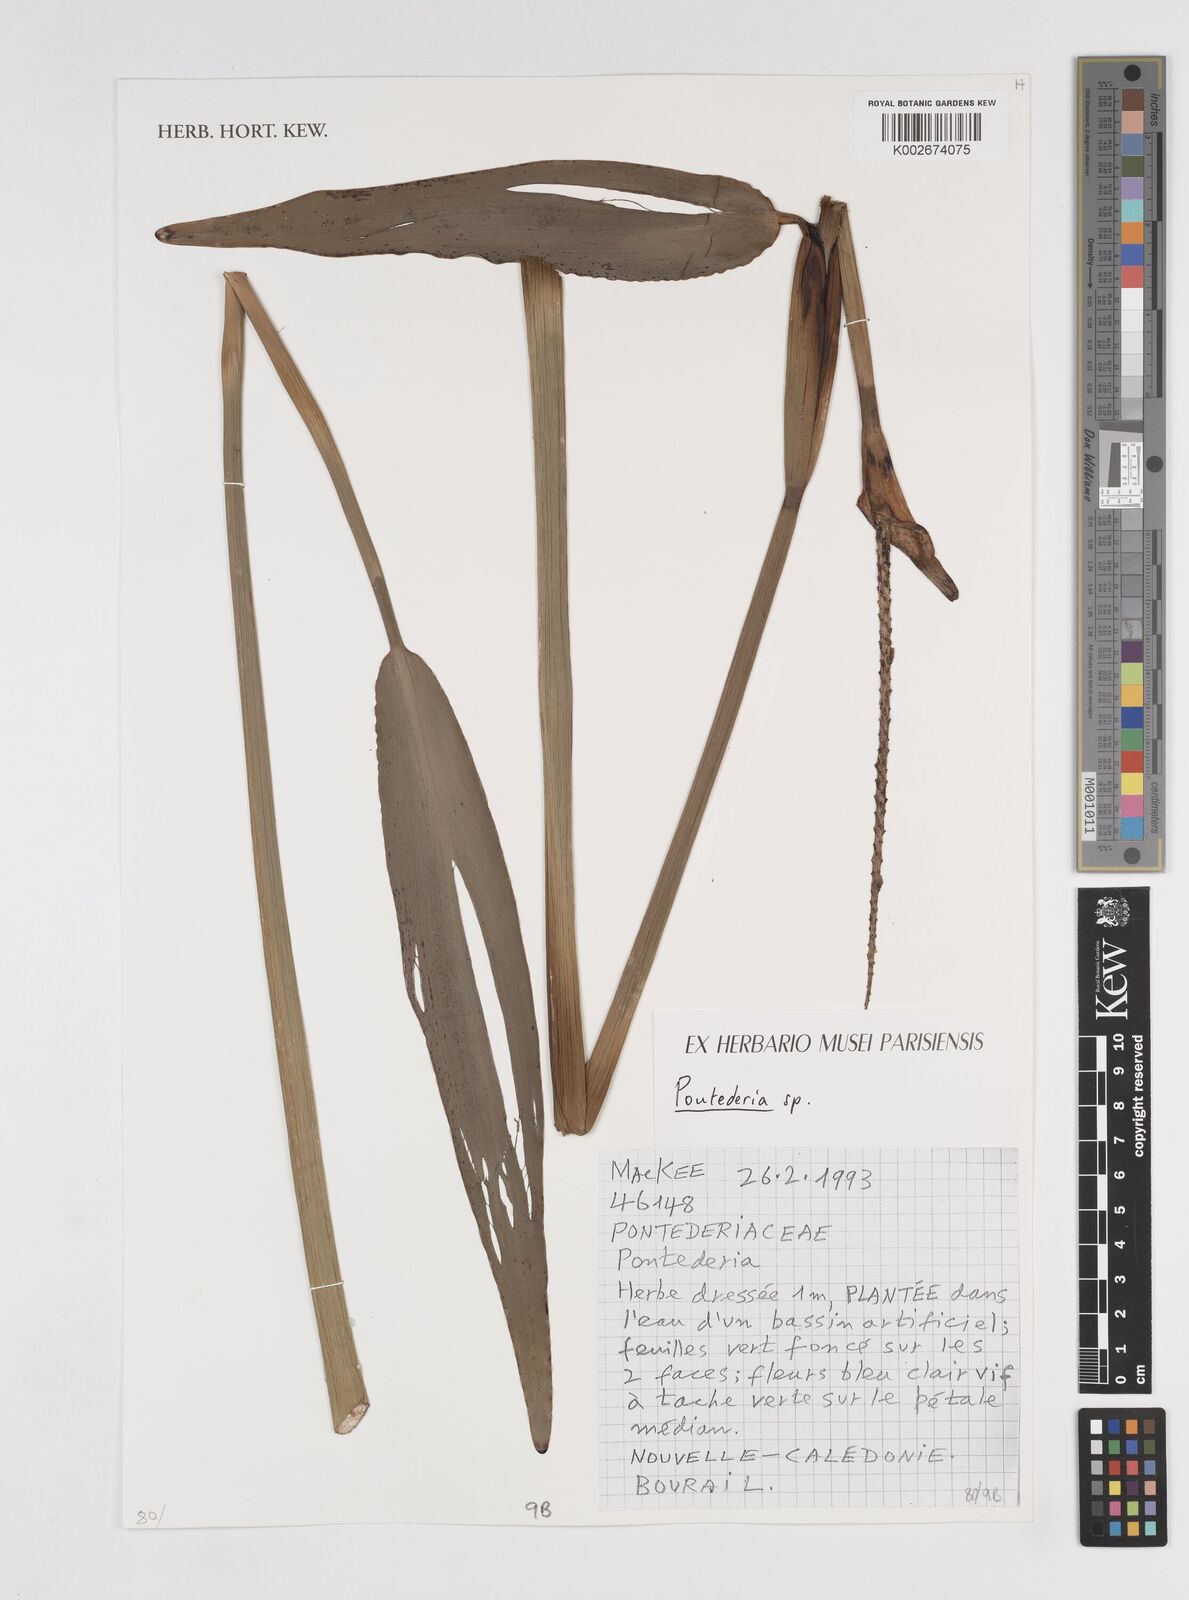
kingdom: Plantae
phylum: Tracheophyta
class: Liliopsida
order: Commelinales
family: Pontederiaceae
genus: Pontederia
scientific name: Pontederia
